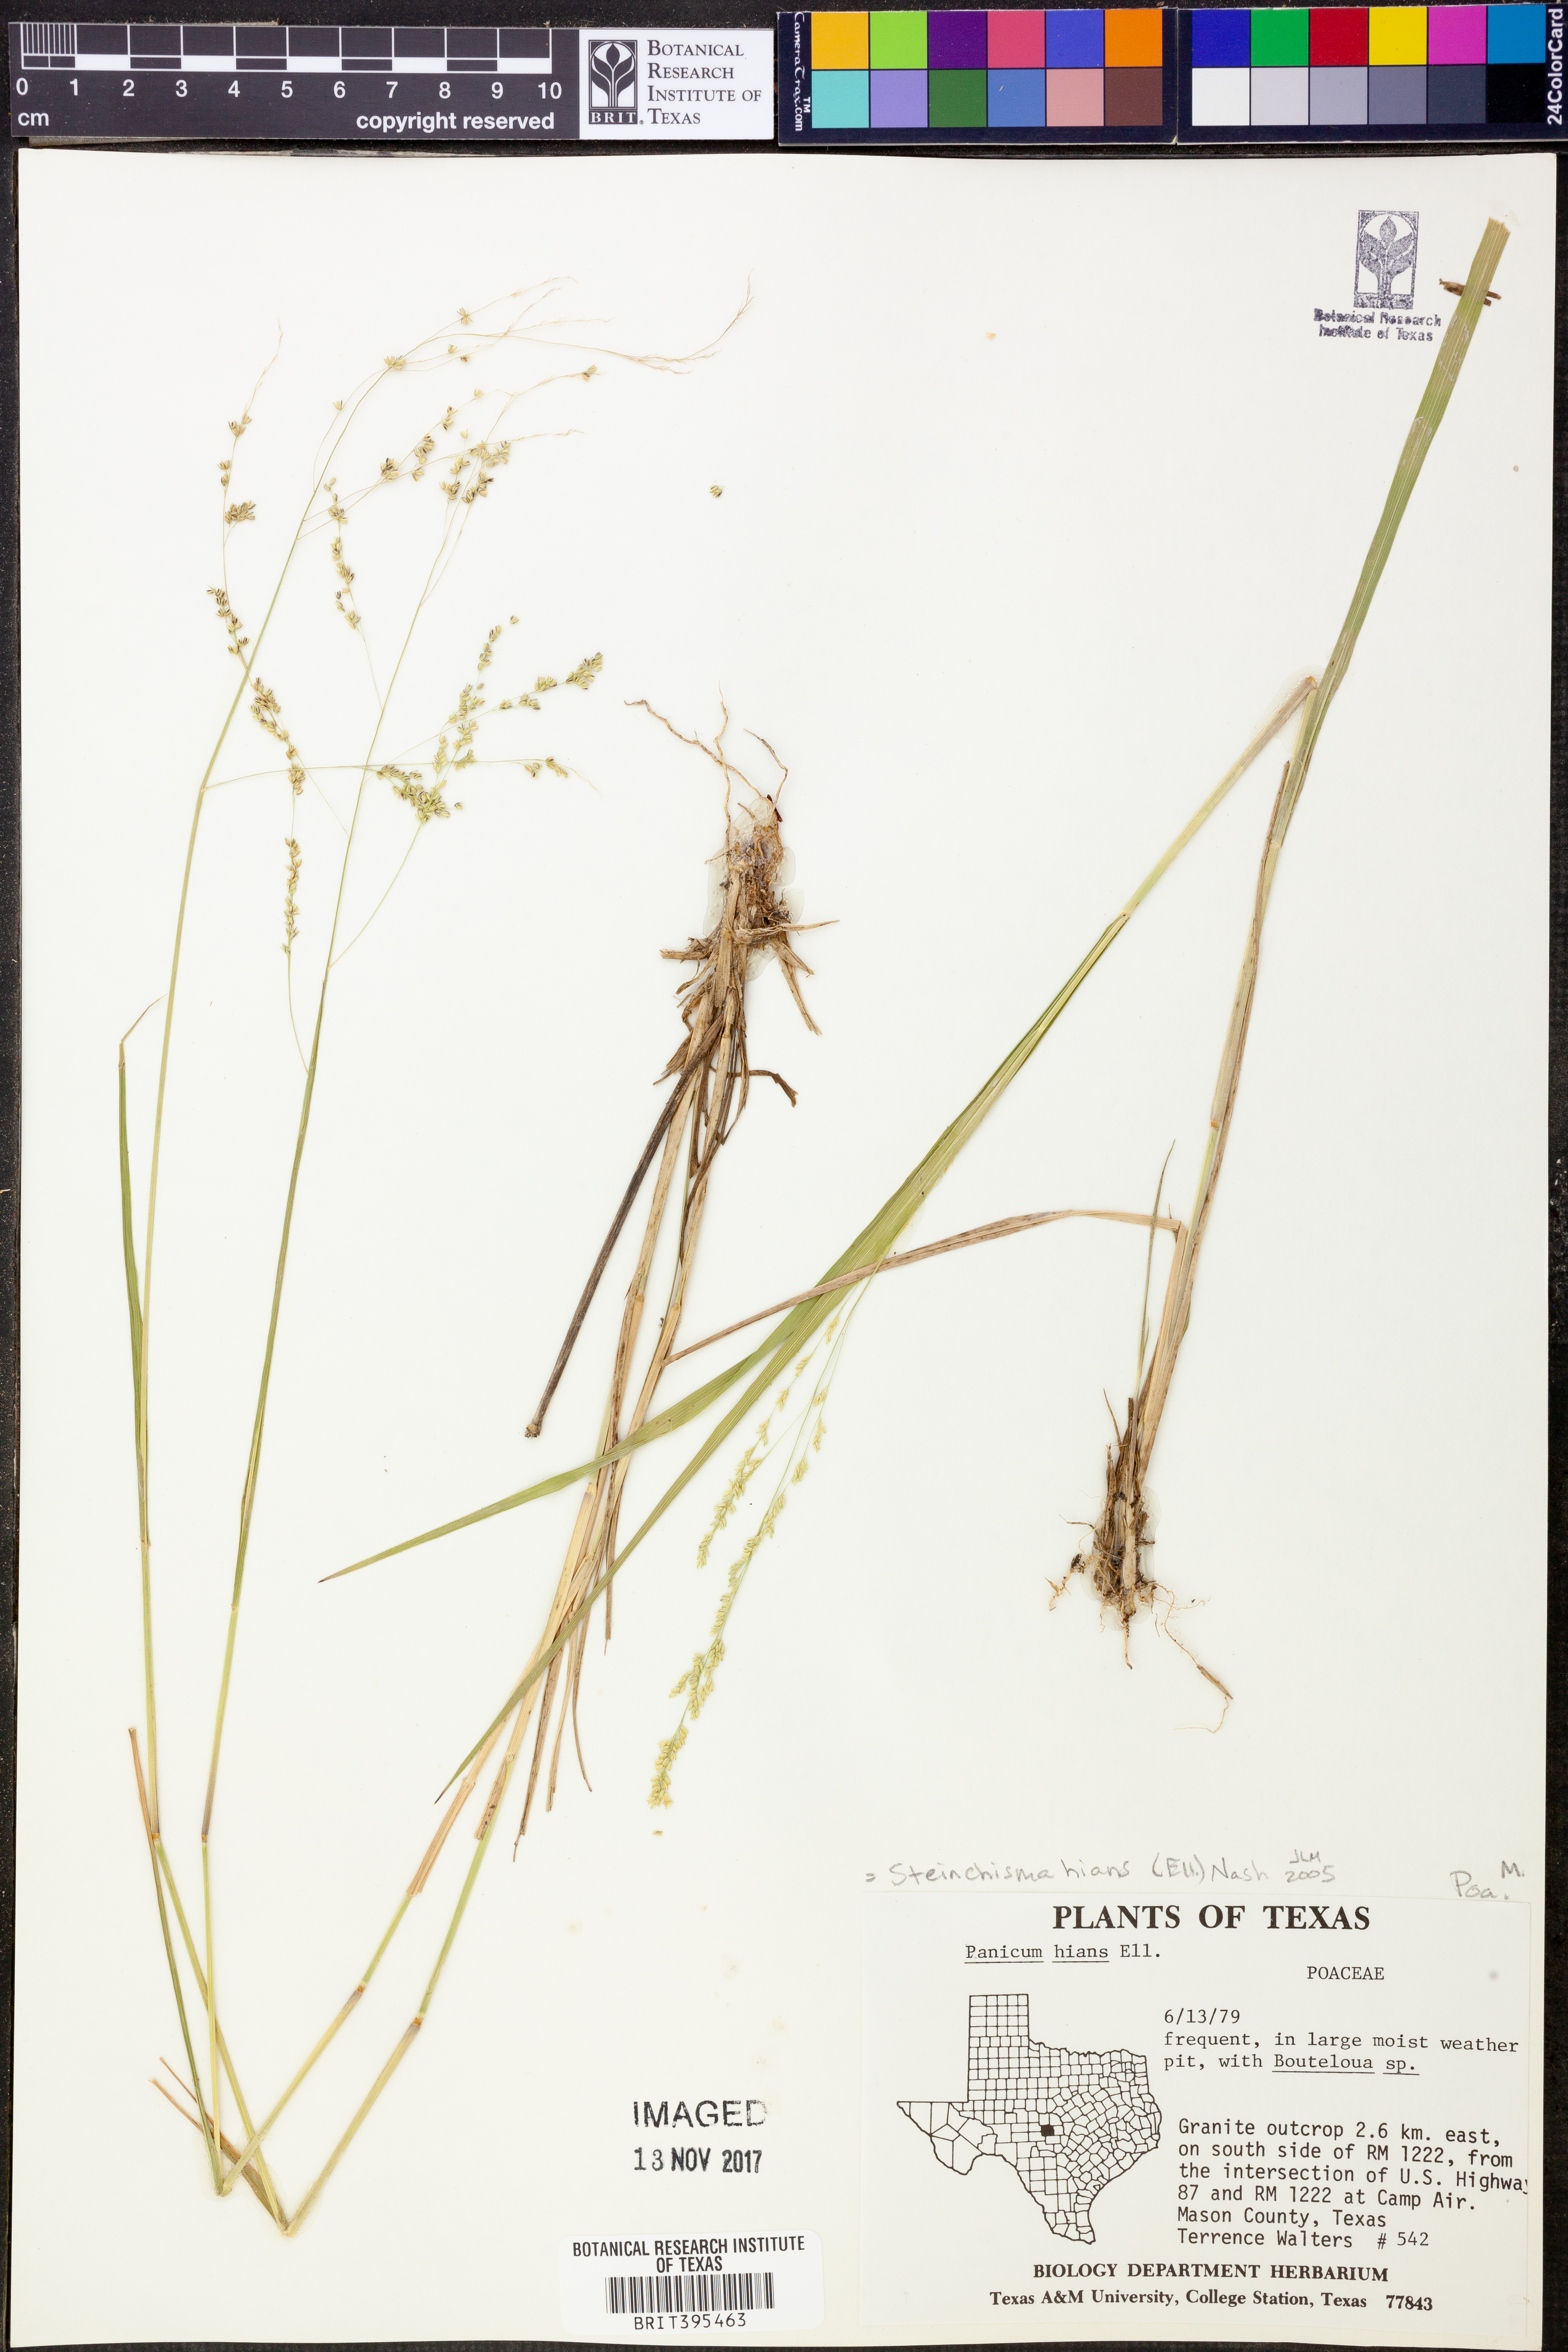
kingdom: Plantae
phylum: Tracheophyta
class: Liliopsida
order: Poales
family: Poaceae
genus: Coleataenia
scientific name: Coleataenia stenodes
